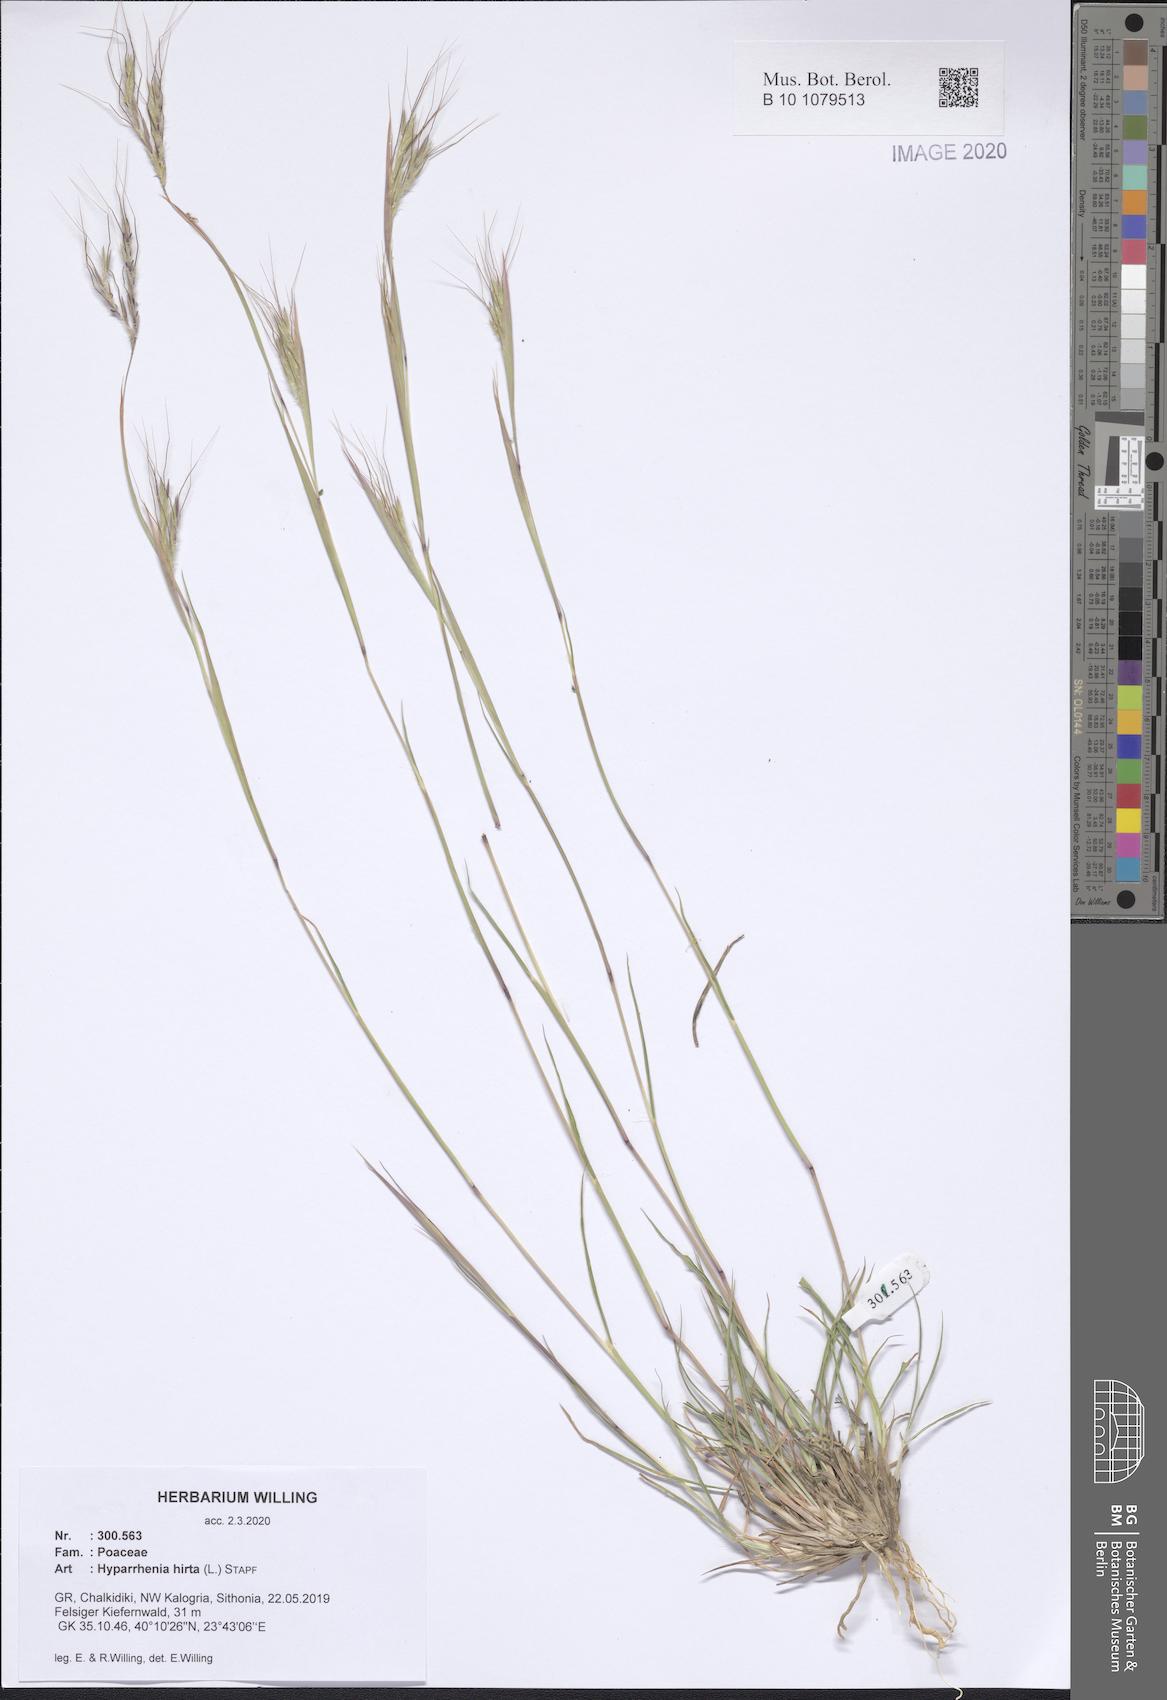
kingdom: Plantae
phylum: Tracheophyta
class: Liliopsida
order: Poales
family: Poaceae
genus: Hyparrhenia
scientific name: Hyparrhenia hirta
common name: Thatching grass
